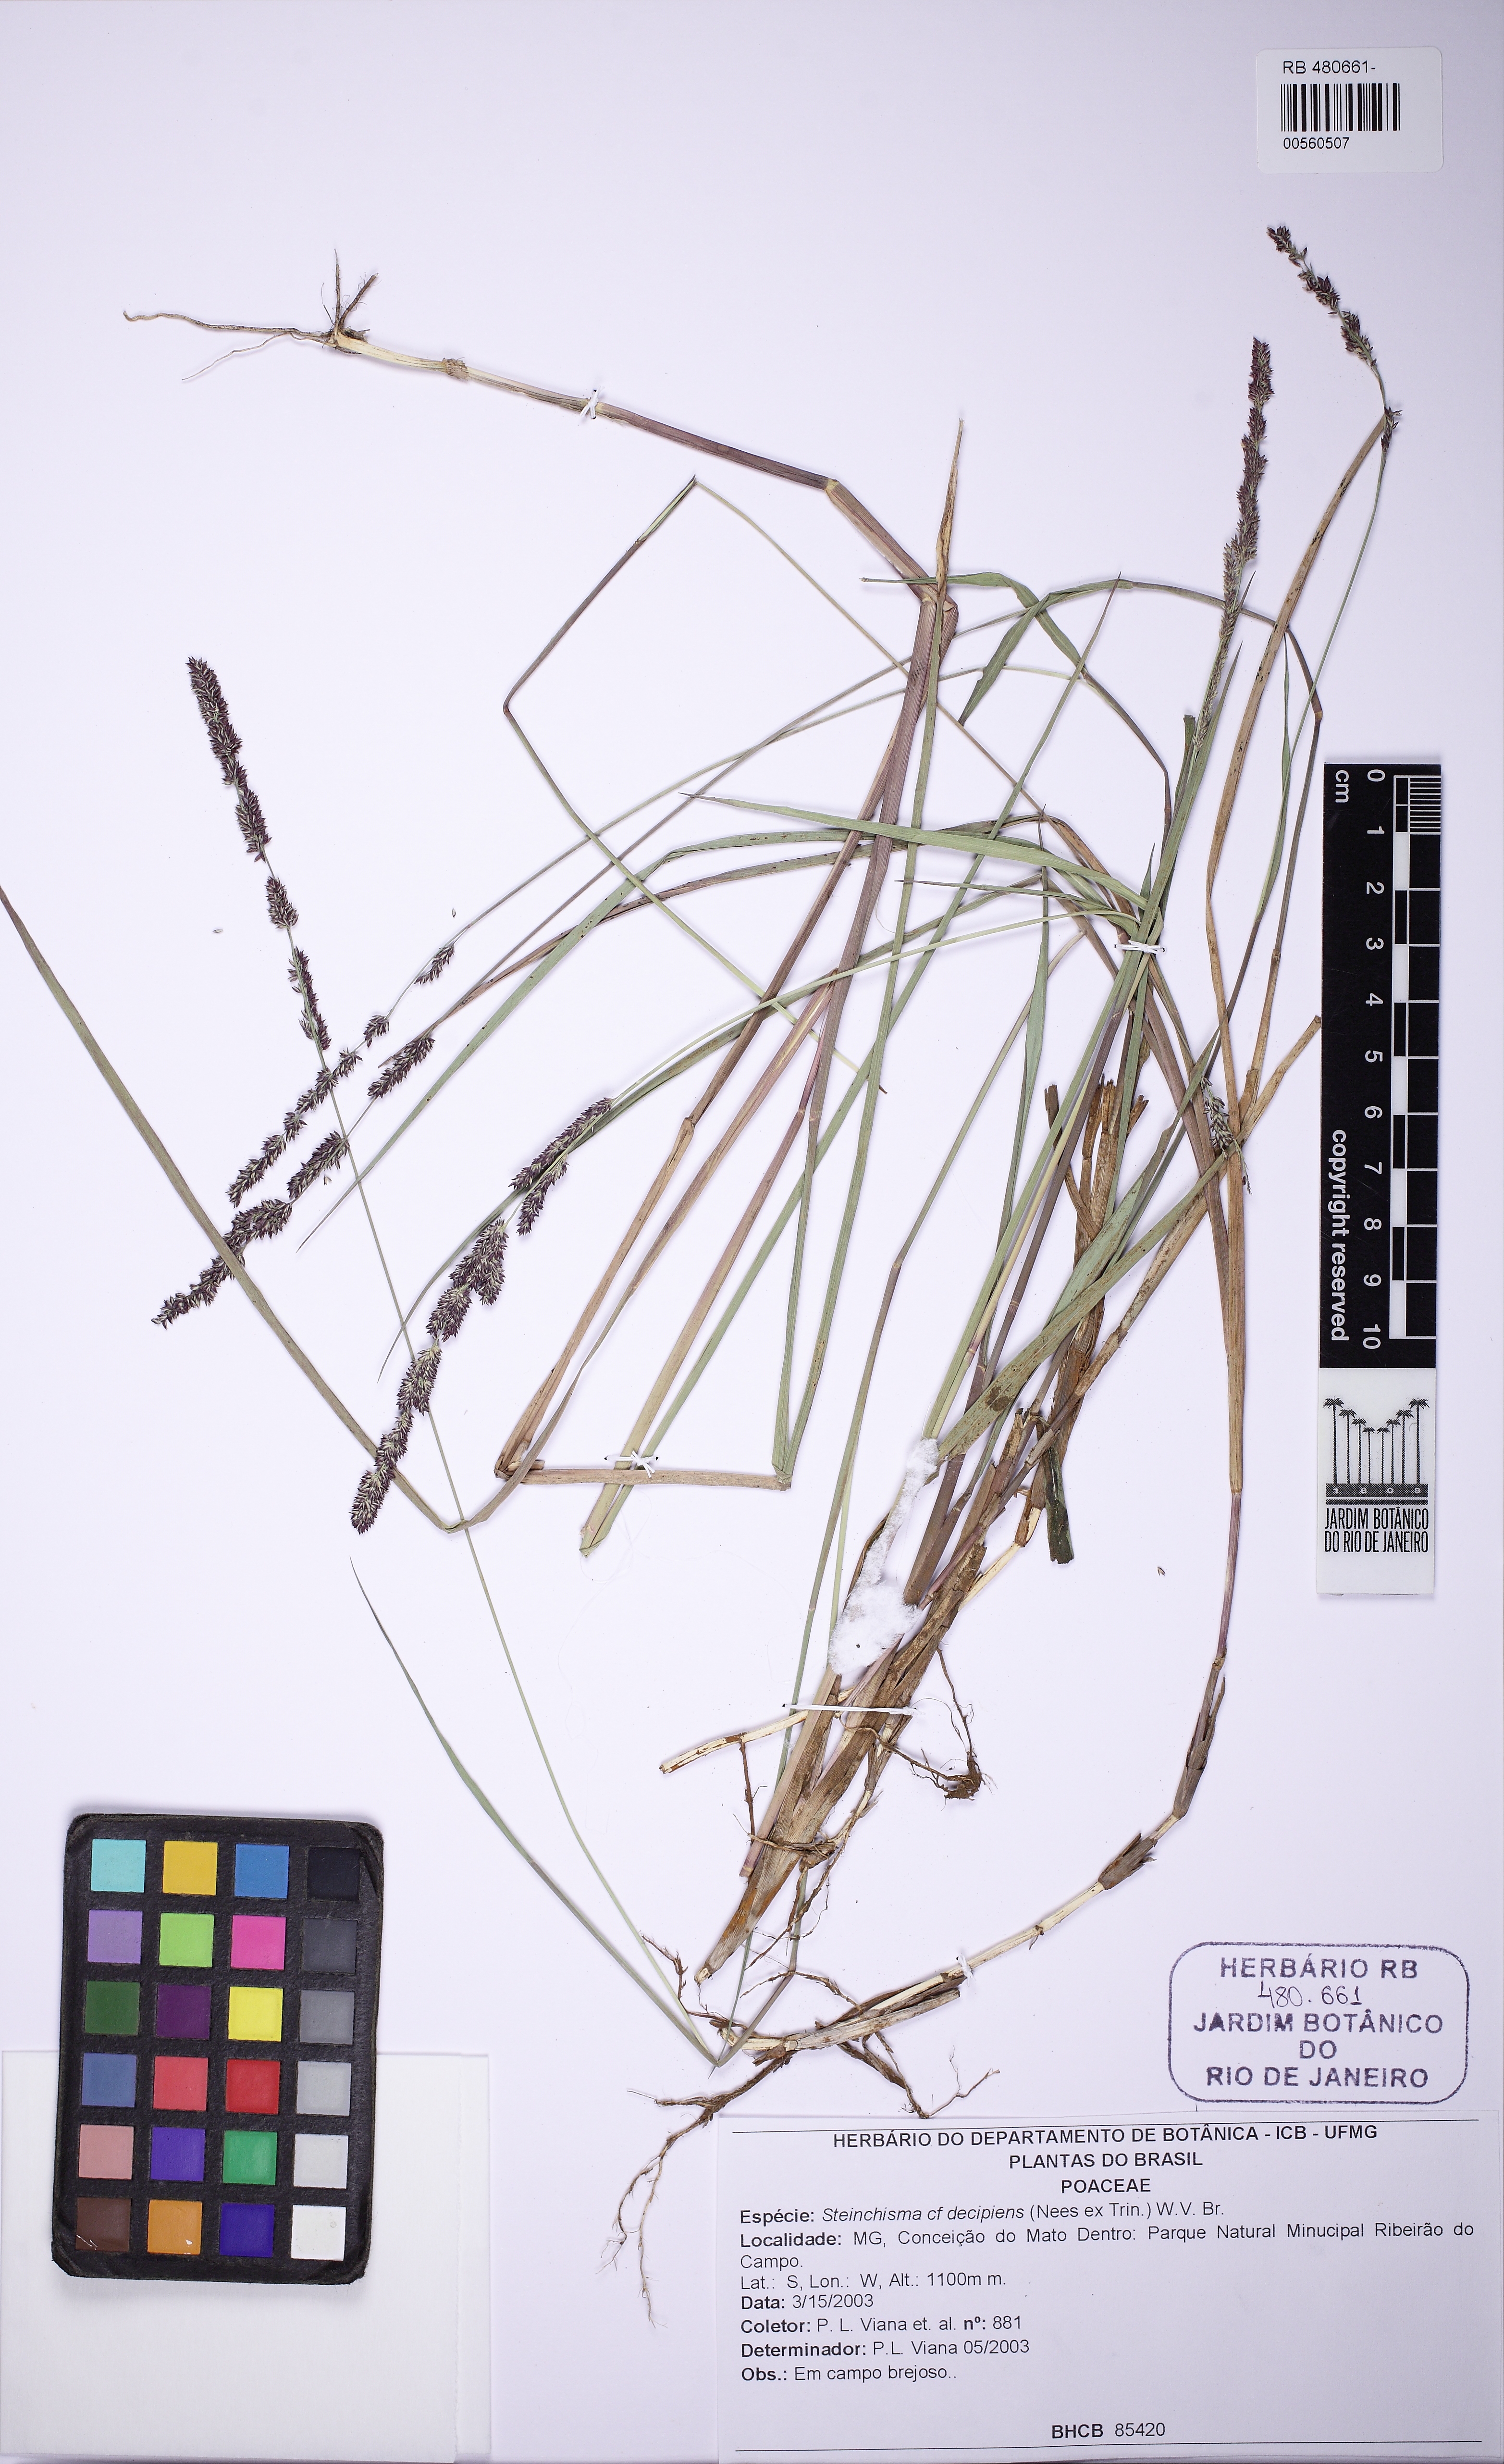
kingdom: Plantae
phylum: Tracheophyta
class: Liliopsida
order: Poales
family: Poaceae
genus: Steinchisma
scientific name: Steinchisma decipiens
